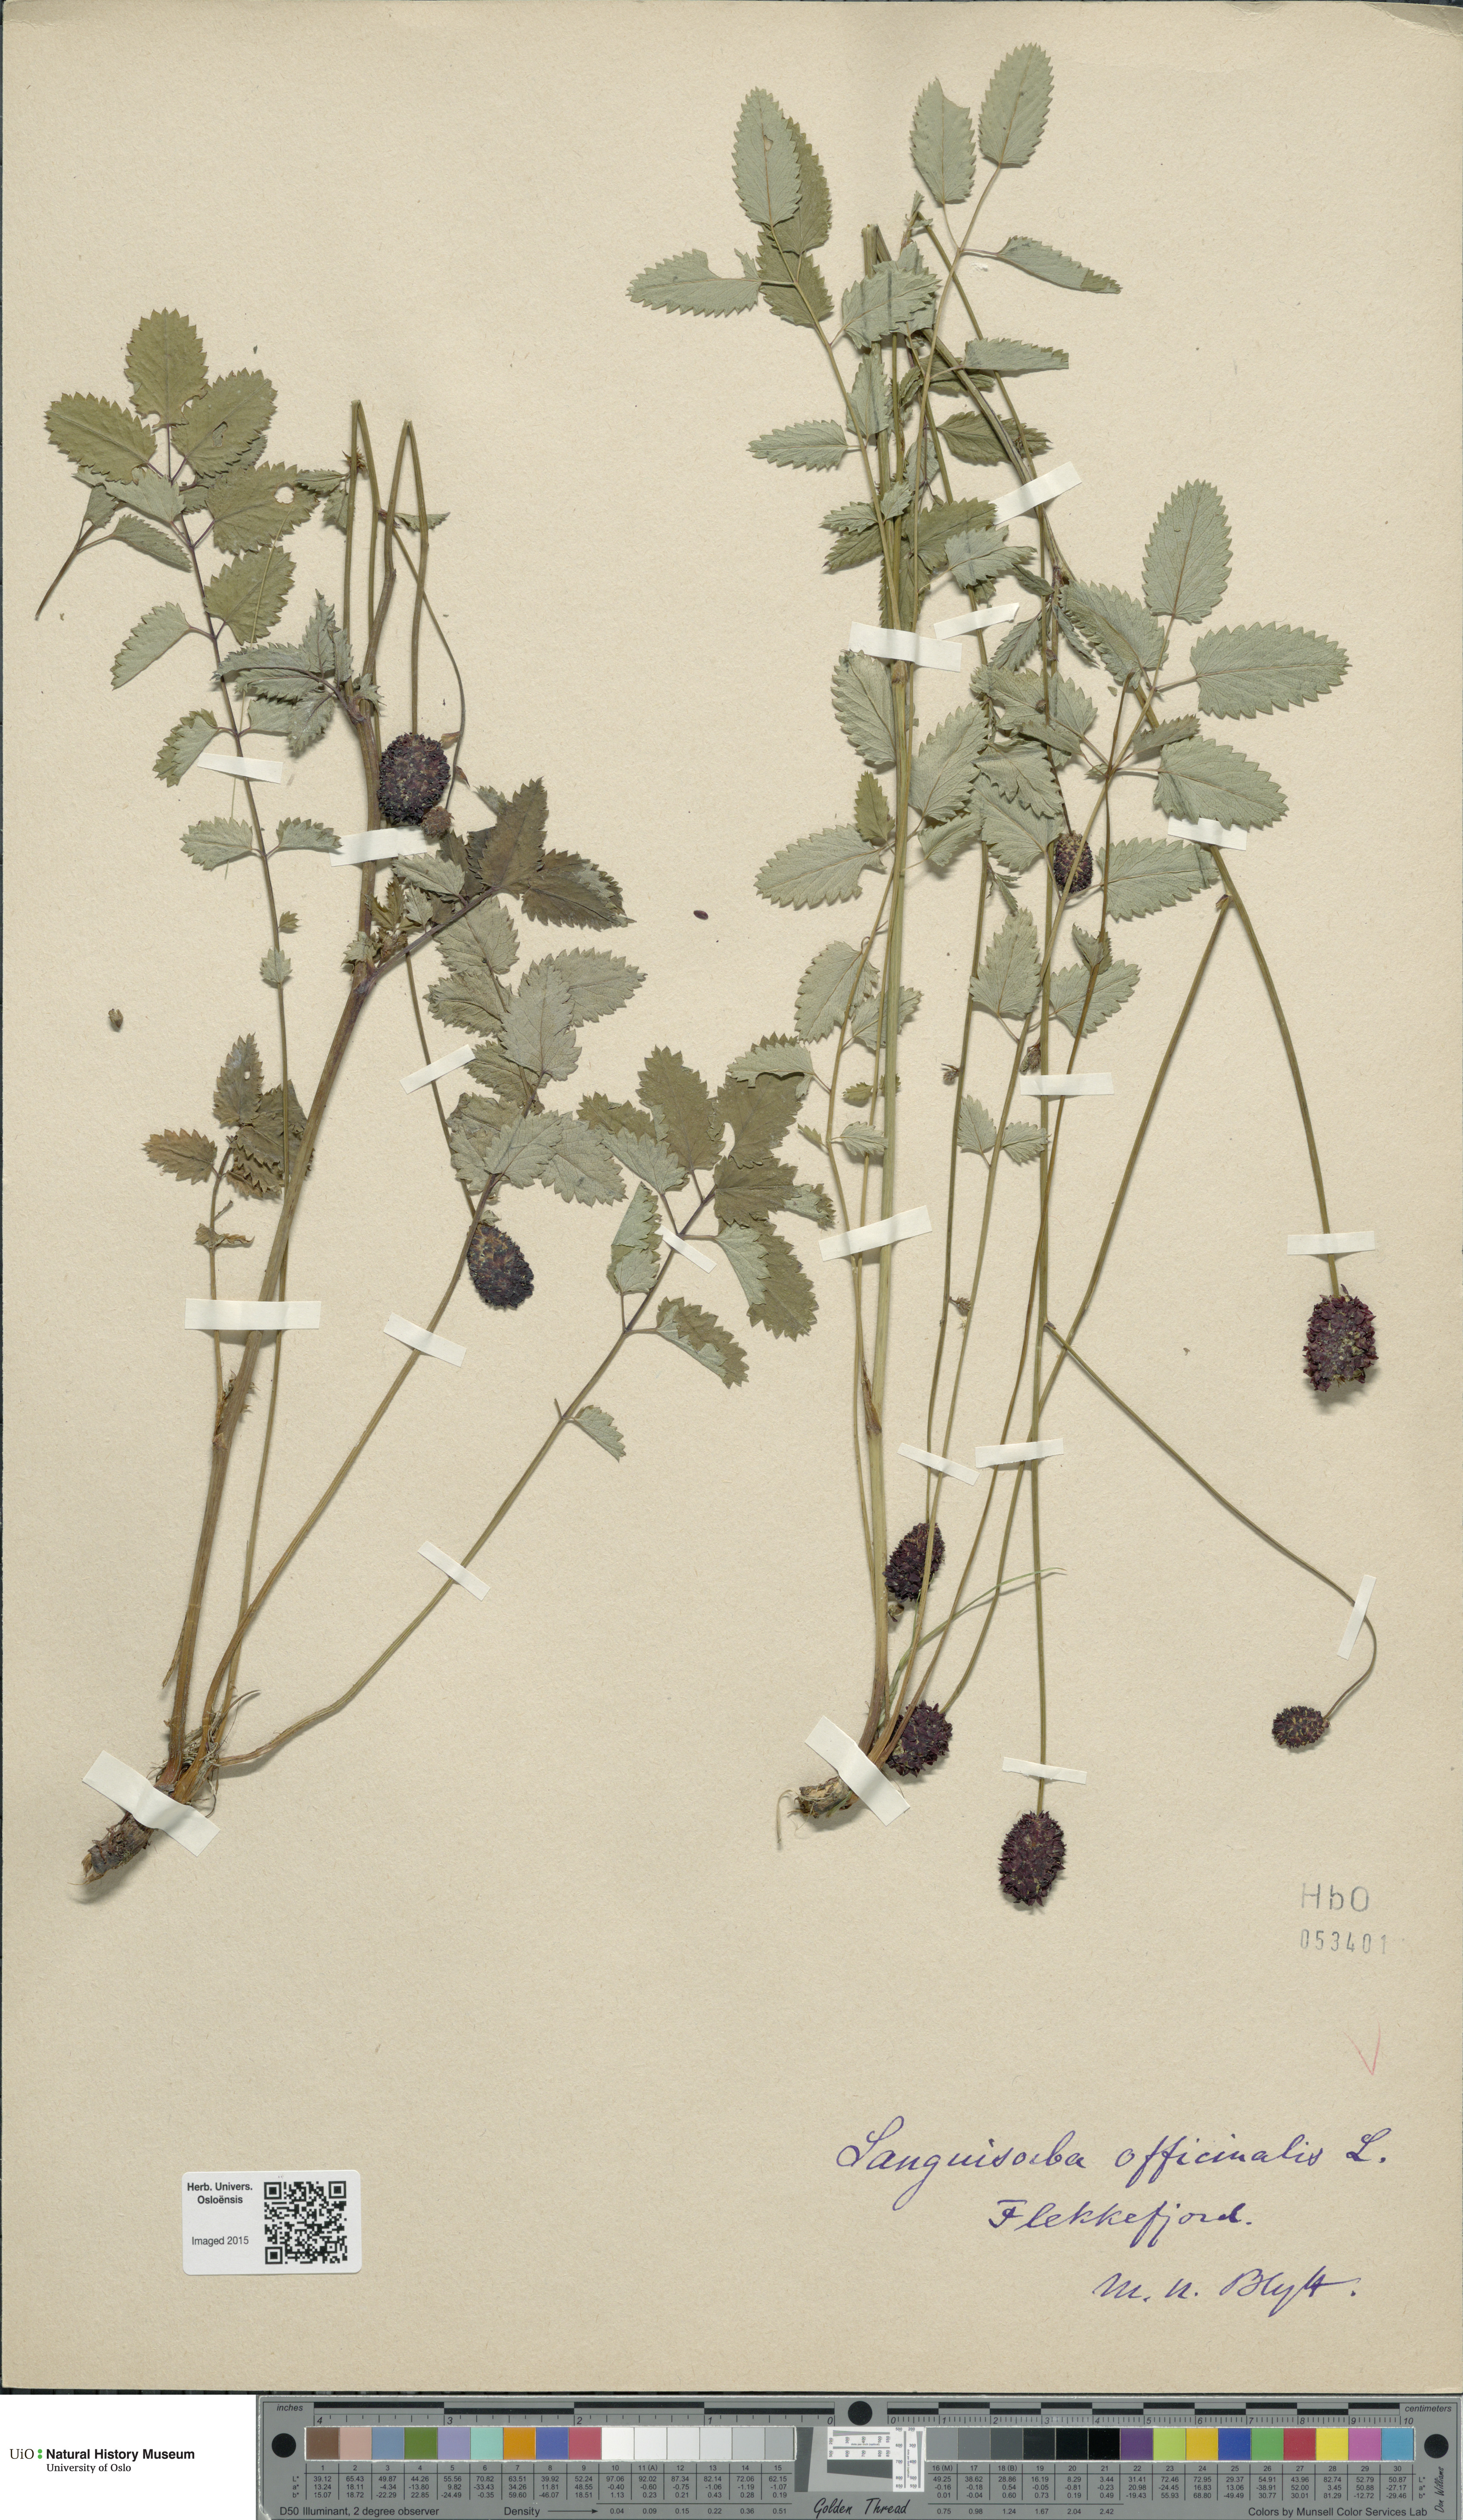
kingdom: Plantae
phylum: Tracheophyta
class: Magnoliopsida
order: Rosales
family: Rosaceae
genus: Sanguisorba
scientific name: Sanguisorba officinalis
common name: Great burnet
